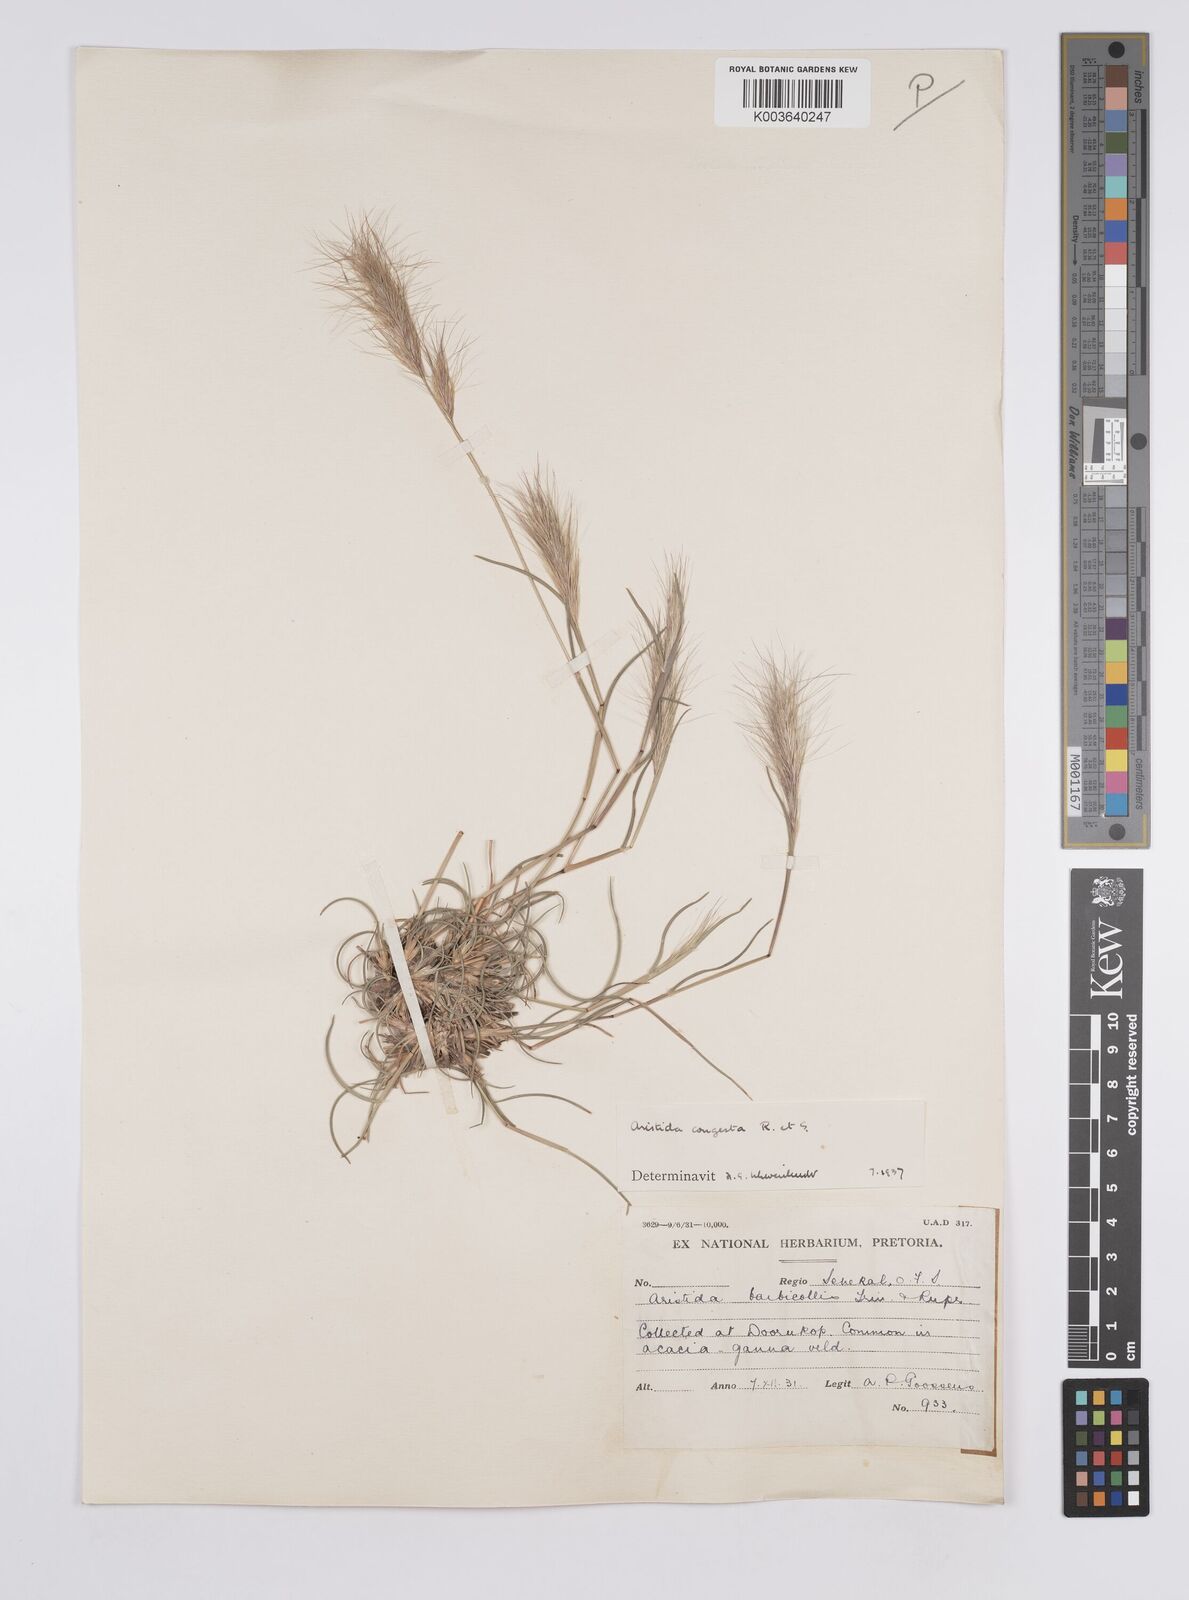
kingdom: Plantae
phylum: Tracheophyta
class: Liliopsida
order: Poales
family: Poaceae
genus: Aristida
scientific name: Aristida congesta
